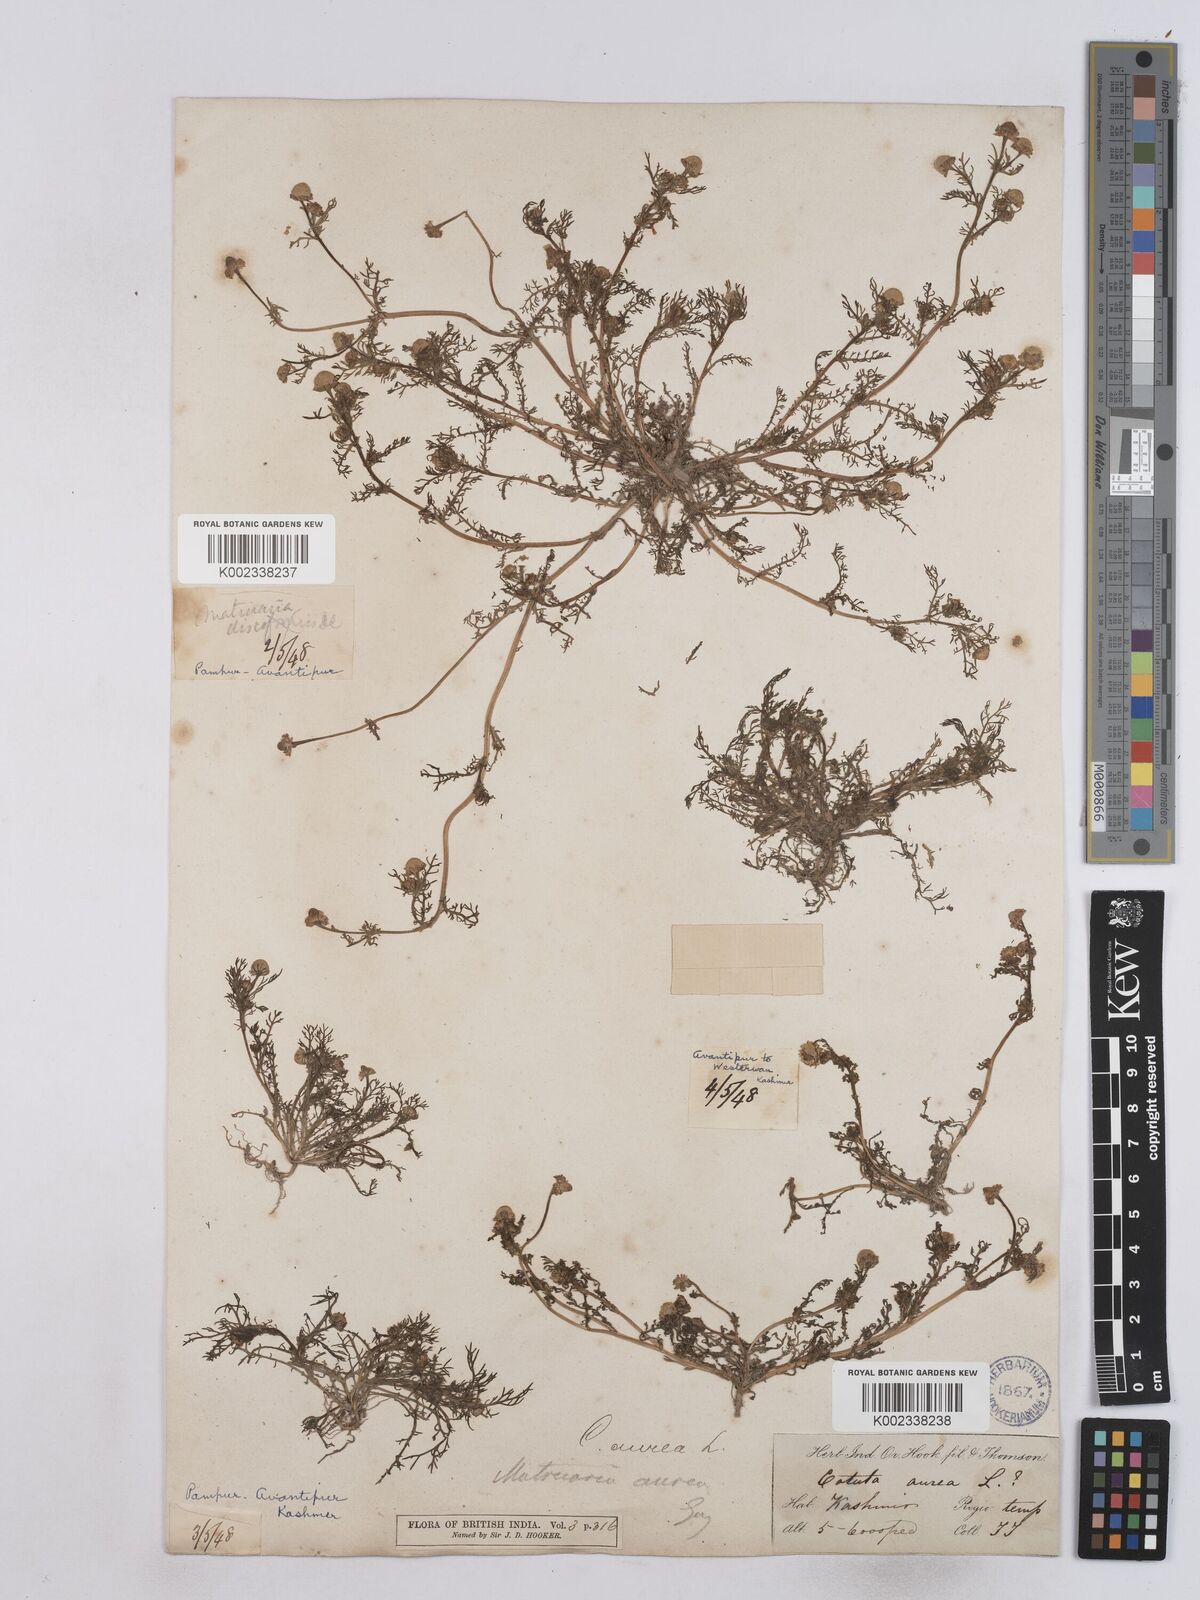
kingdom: Plantae
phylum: Tracheophyta
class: Magnoliopsida
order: Asterales
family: Asteraceae
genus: Matricaria
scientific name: Matricaria aurea
